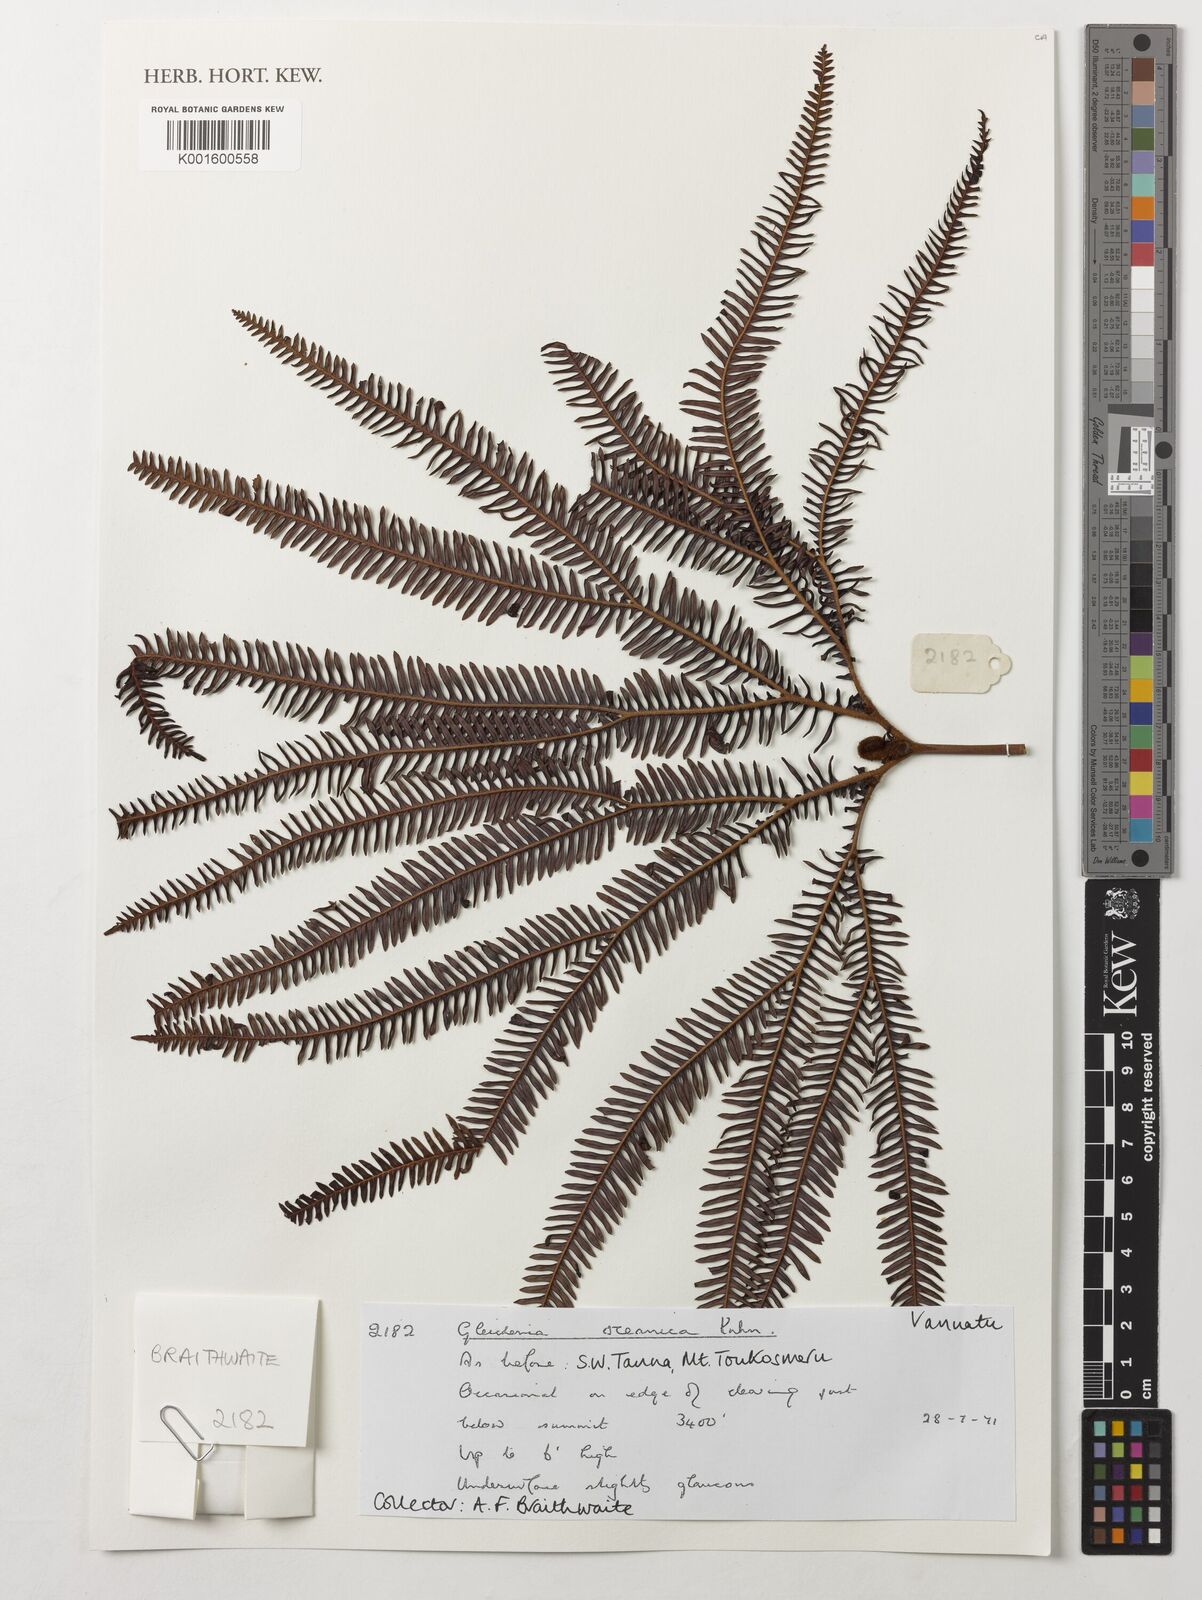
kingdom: Plantae
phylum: Tracheophyta
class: Polypodiopsida
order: Gleicheniales
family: Gleicheniaceae
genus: Sticherus
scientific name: Sticherus oceanicus
